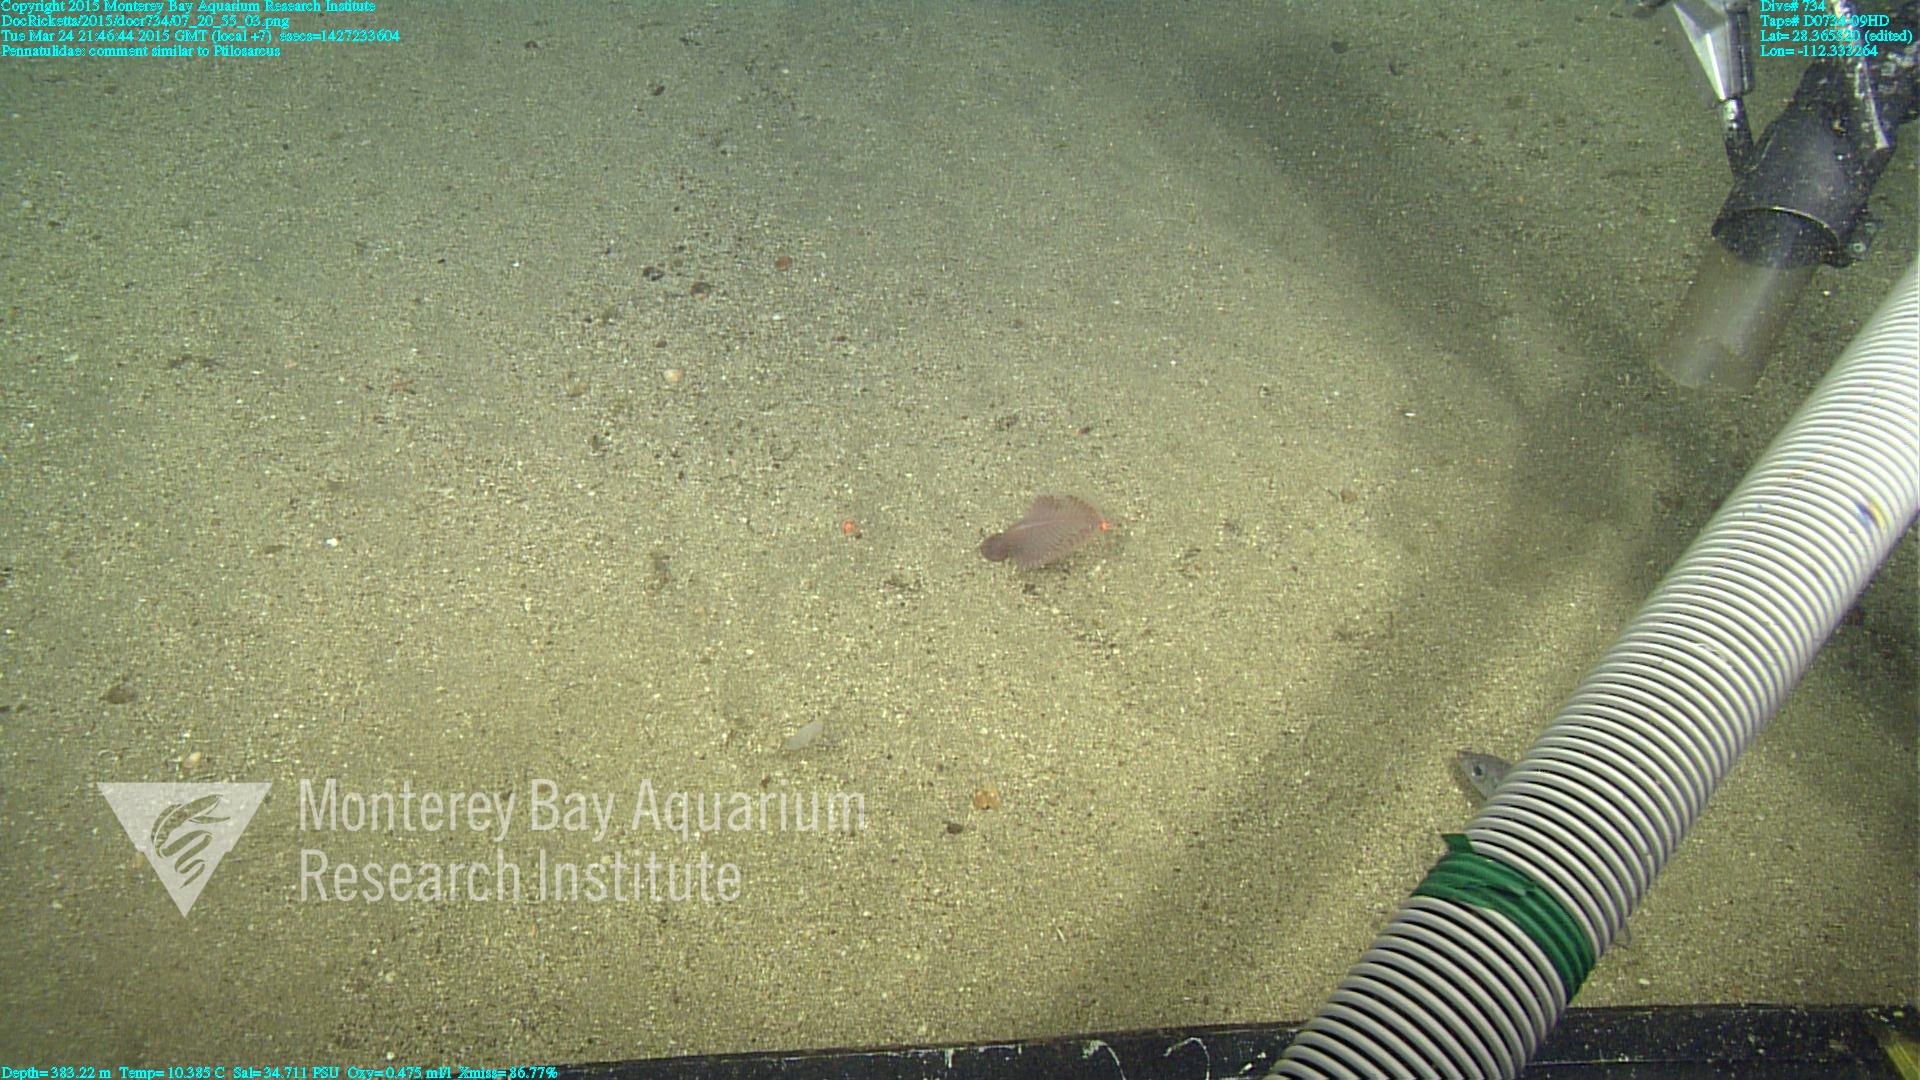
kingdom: Animalia
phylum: Cnidaria
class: Anthozoa
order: Scleralcyonacea
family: Pennatulidae
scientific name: Pennatulidae
